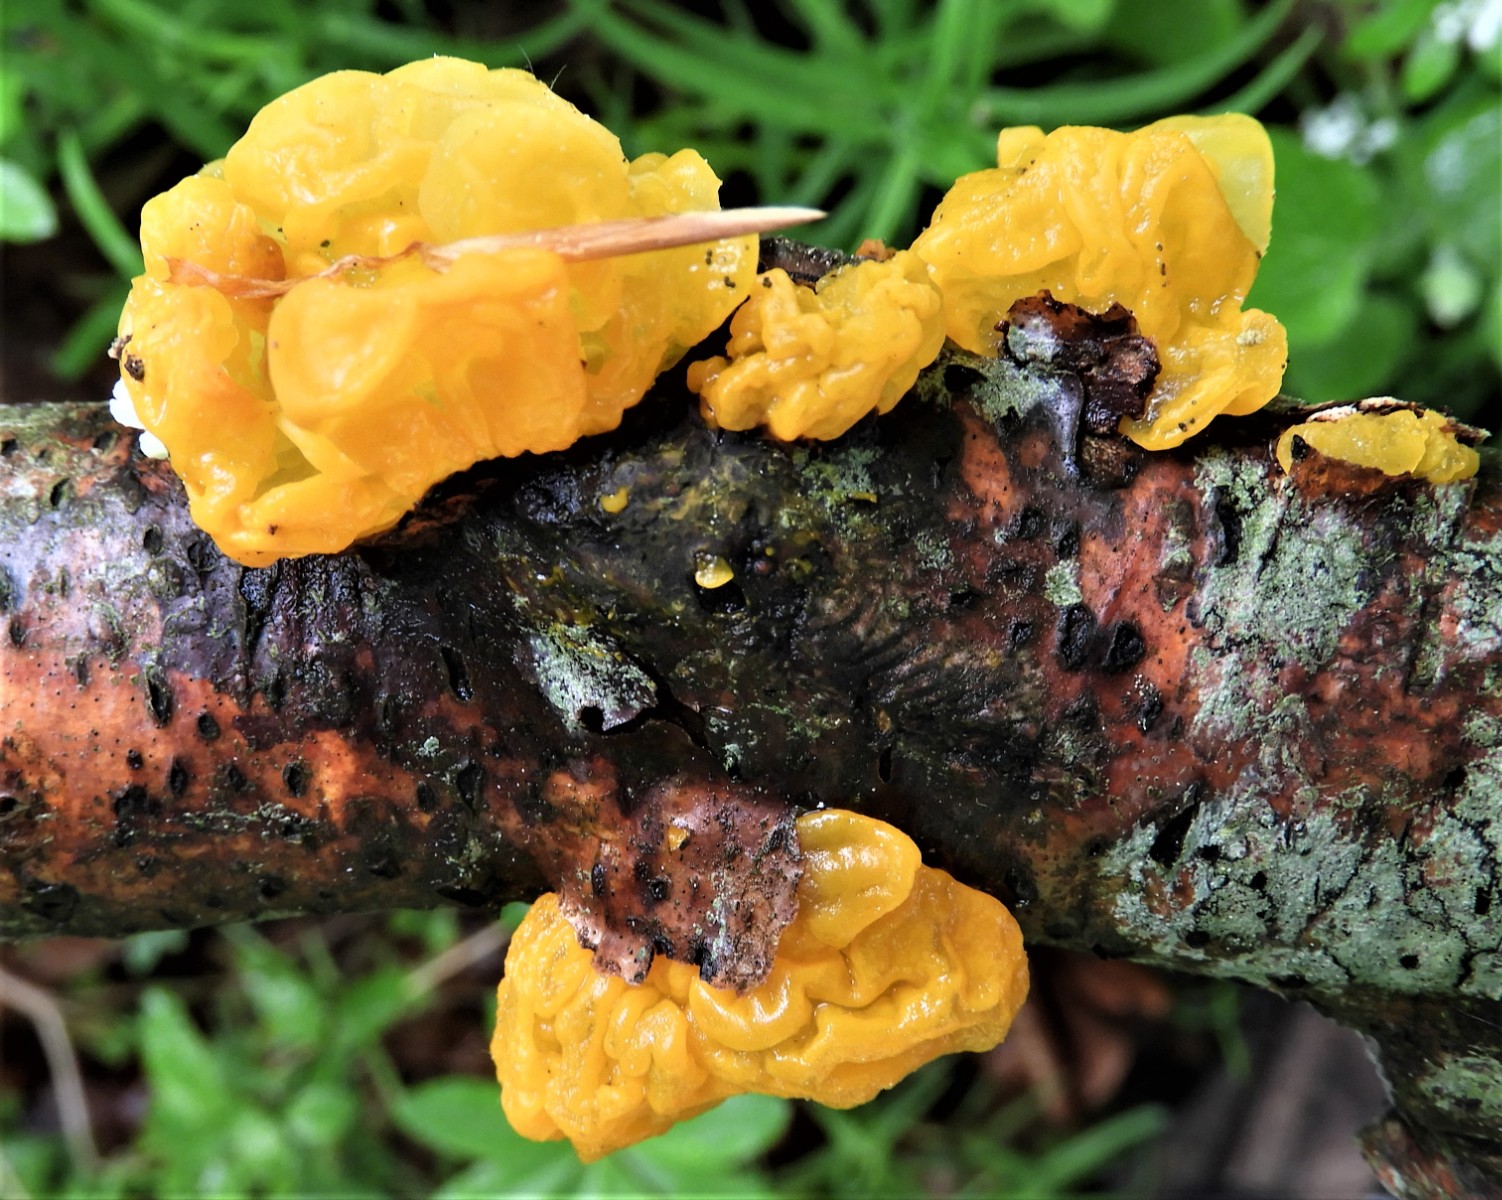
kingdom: Fungi
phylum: Basidiomycota
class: Tremellomycetes
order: Tremellales
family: Tremellaceae
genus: Tremella
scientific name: Tremella mesenterica
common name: gul bævresvamp
